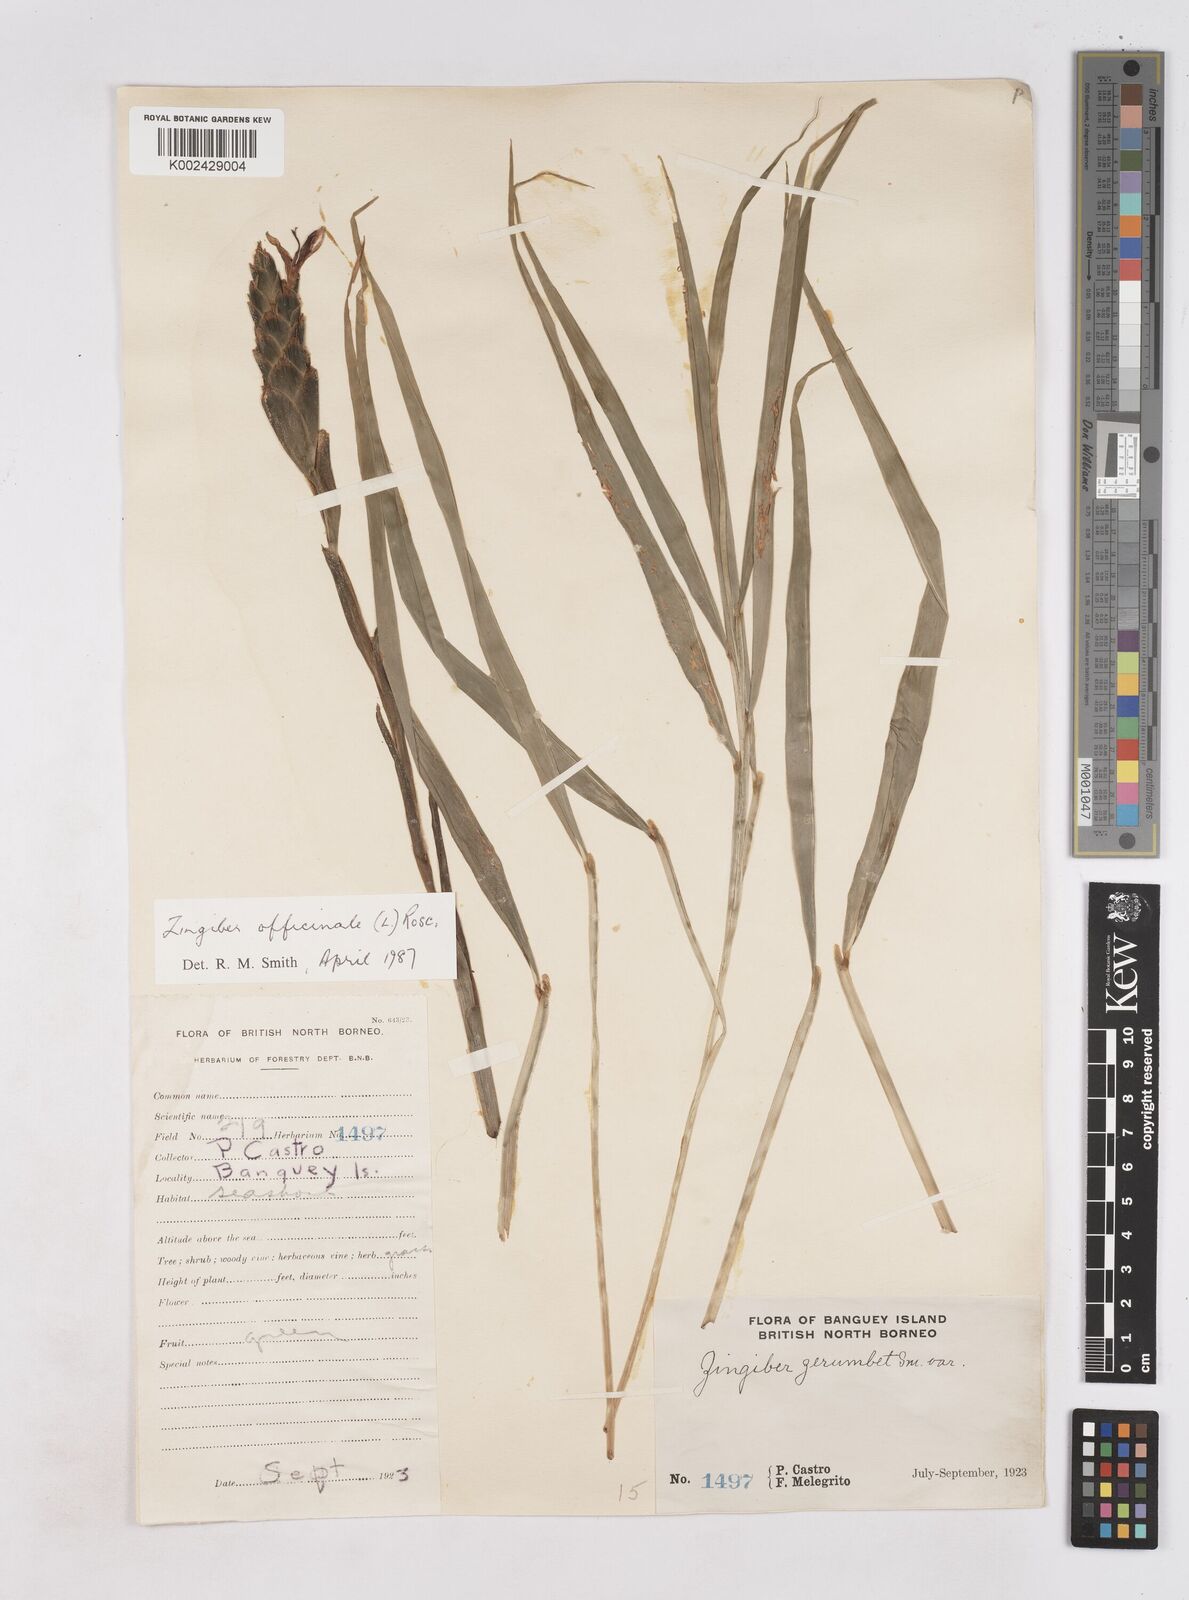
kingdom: Plantae
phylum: Tracheophyta
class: Liliopsida
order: Zingiberales
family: Zingiberaceae
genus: Zingiber
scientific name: Zingiber officinale
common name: Ginger
